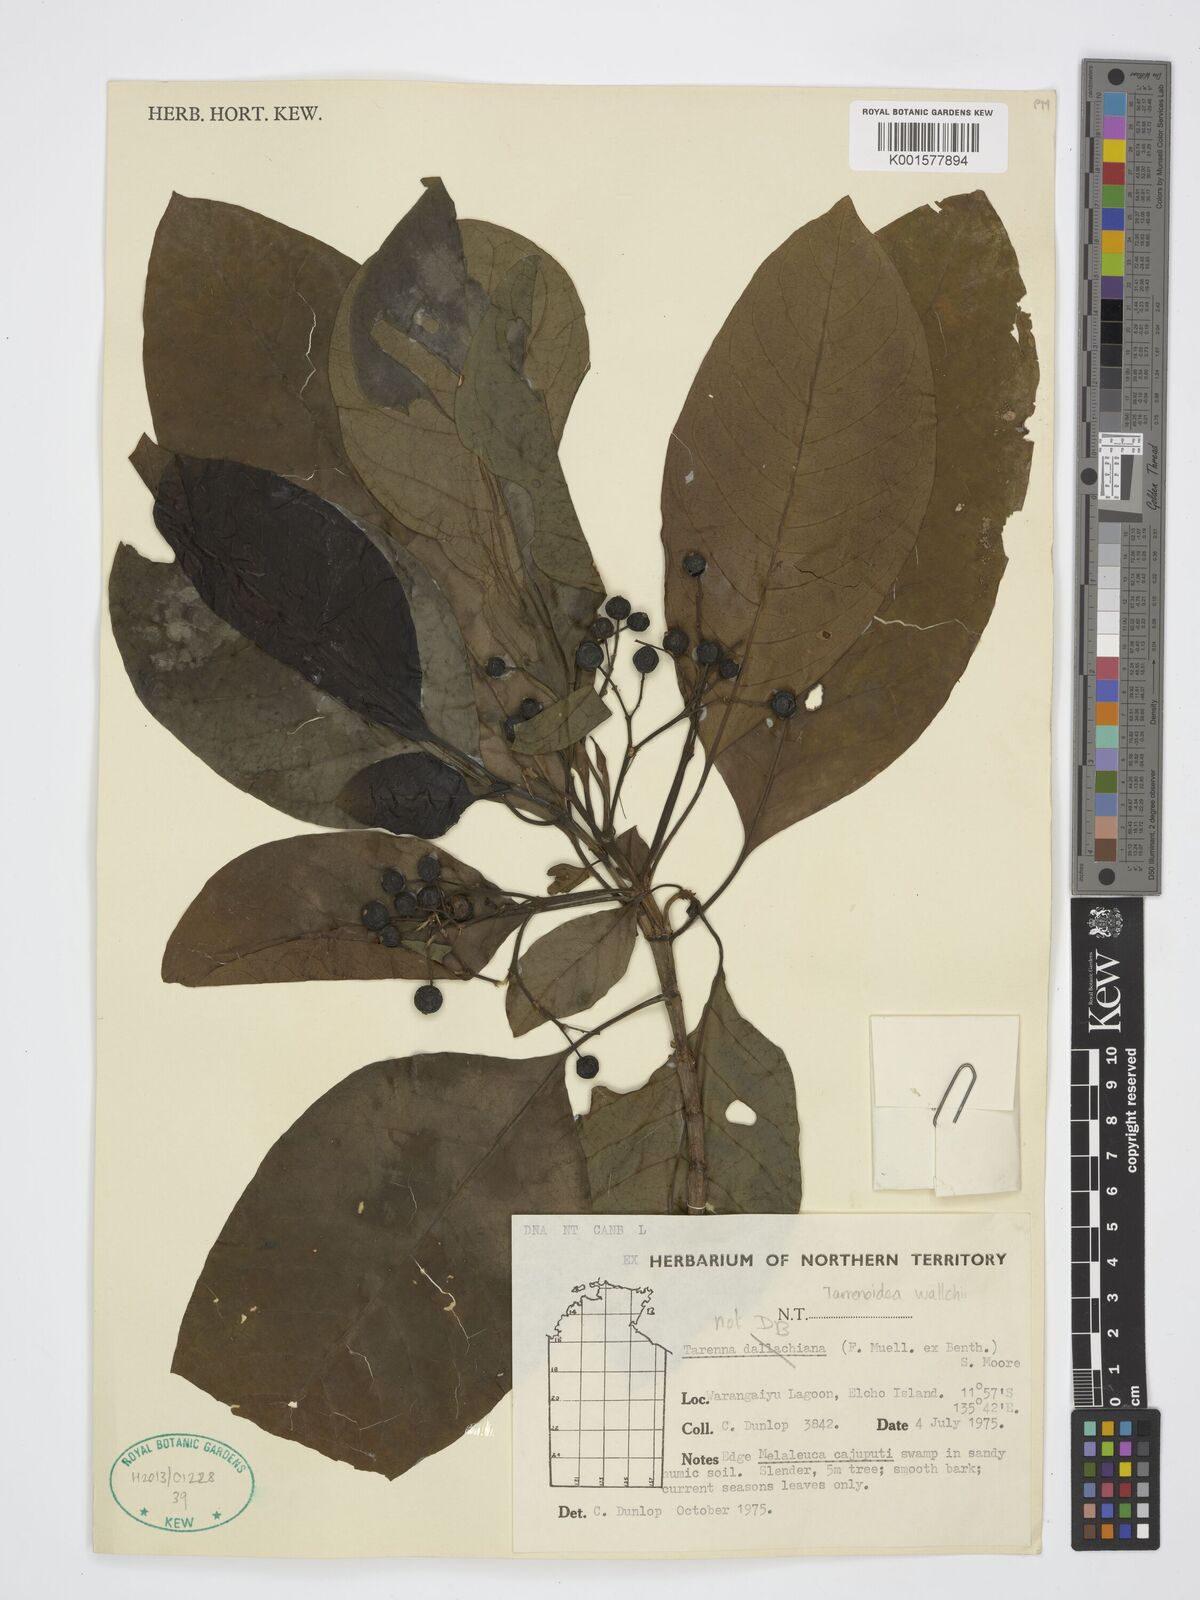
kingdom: Plantae
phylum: Tracheophyta
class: Magnoliopsida
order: Gentianales
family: Rubiaceae
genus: Tarennoidea
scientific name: Tarennoidea wallichii
